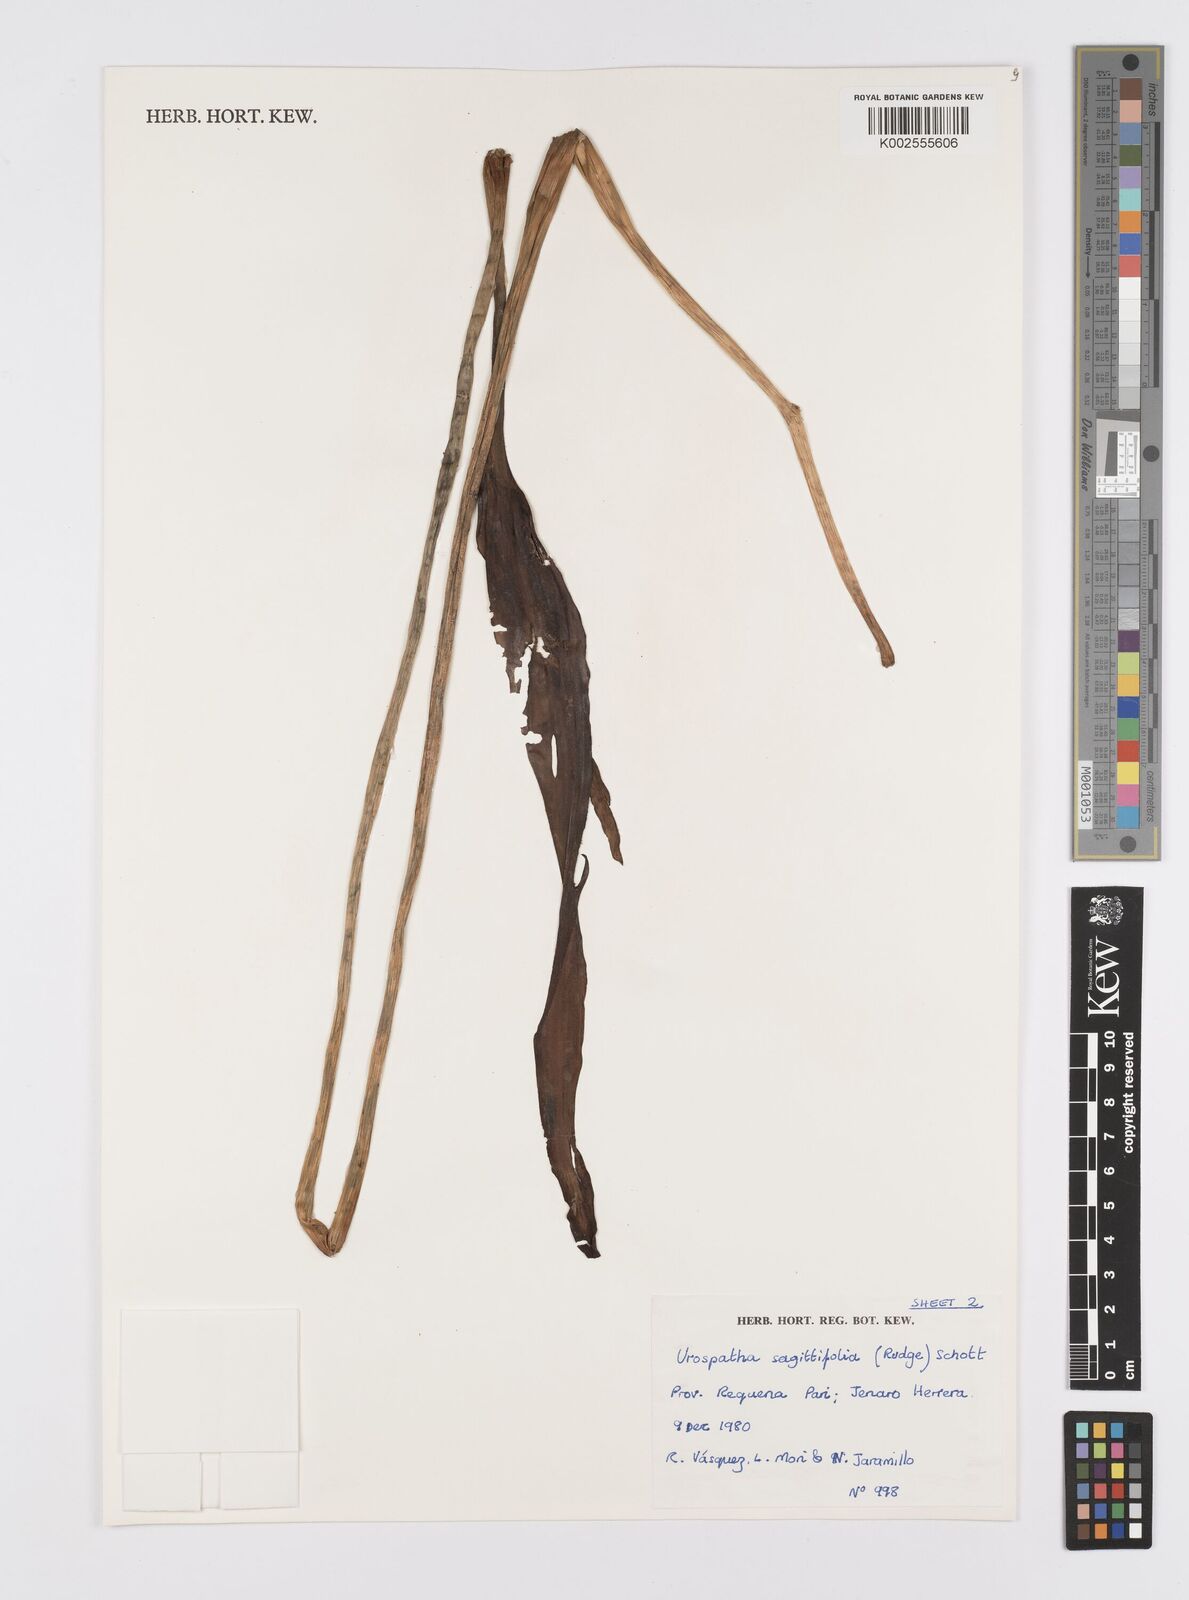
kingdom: Plantae
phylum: Tracheophyta
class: Liliopsida
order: Alismatales
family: Araceae
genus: Urospatha
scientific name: Urospatha sagittifolia
